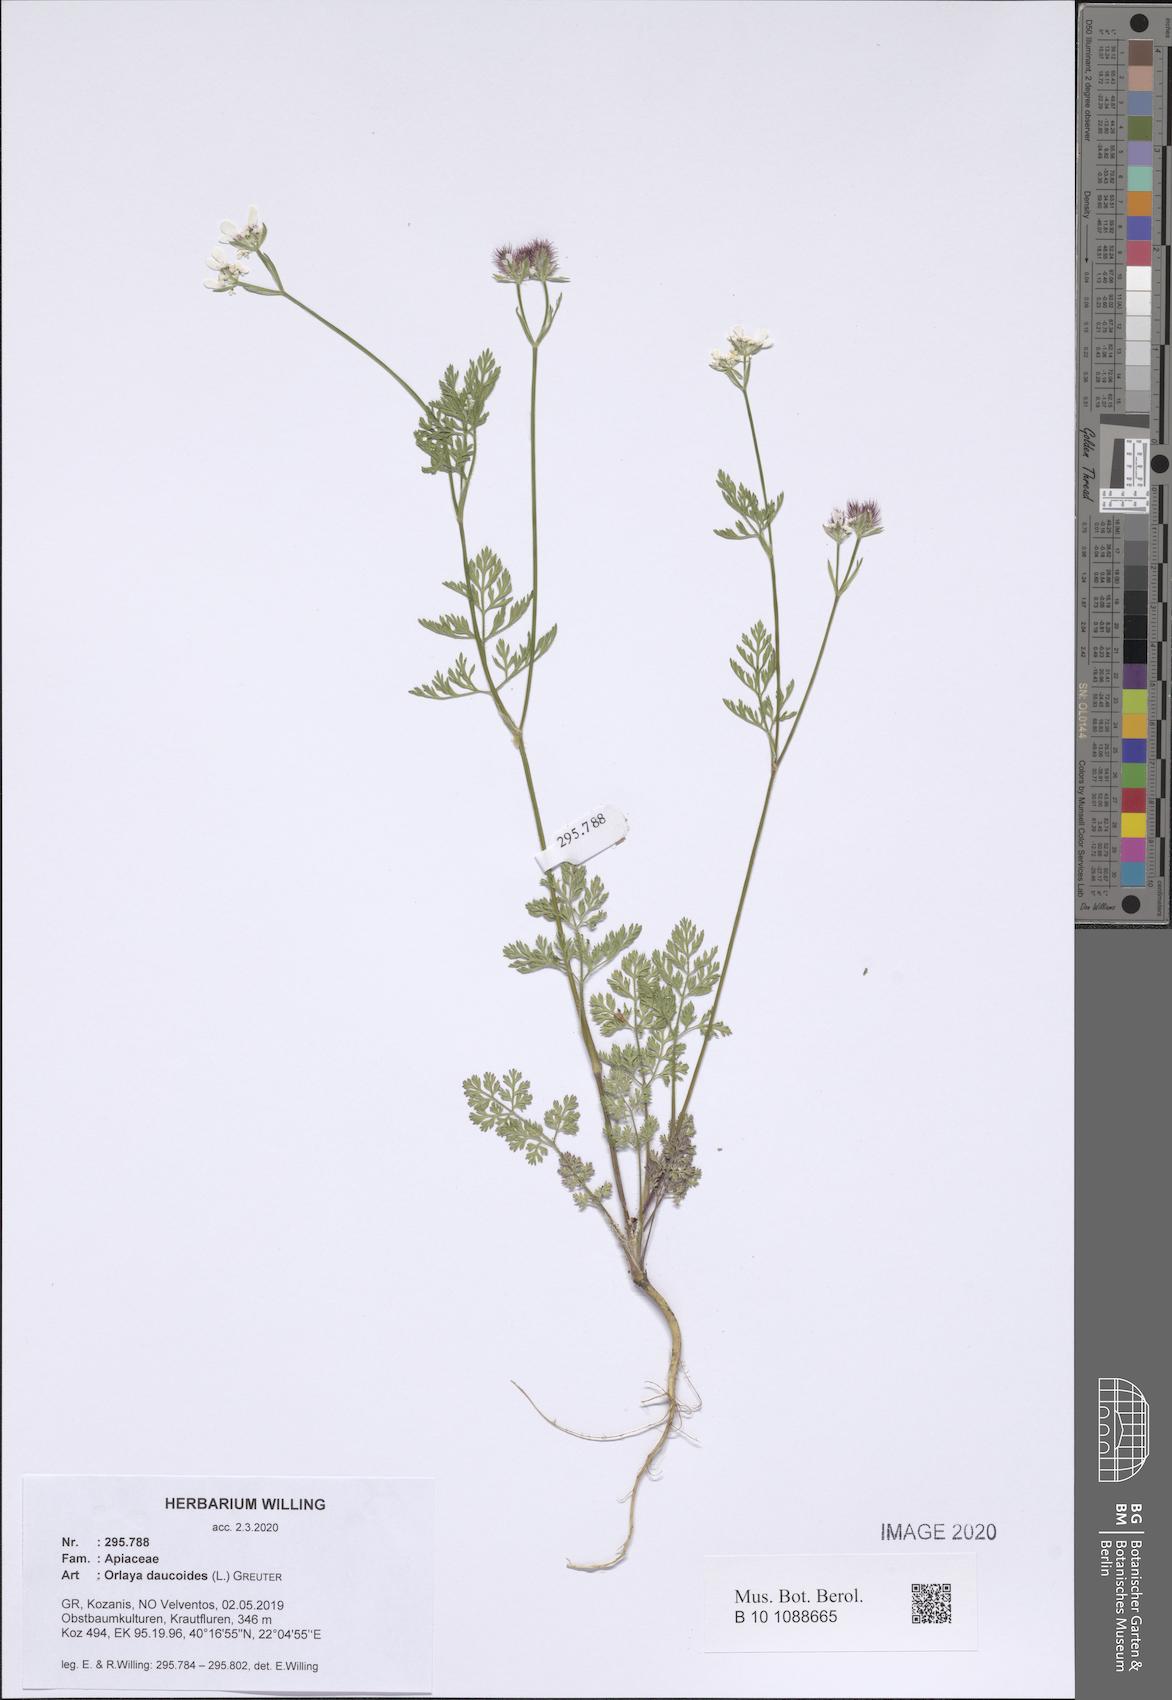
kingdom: Plantae
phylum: Tracheophyta
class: Magnoliopsida
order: Apiales
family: Apiaceae
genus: Orlaya
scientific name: Orlaya daucoides
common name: Flat-fruit orlaya
